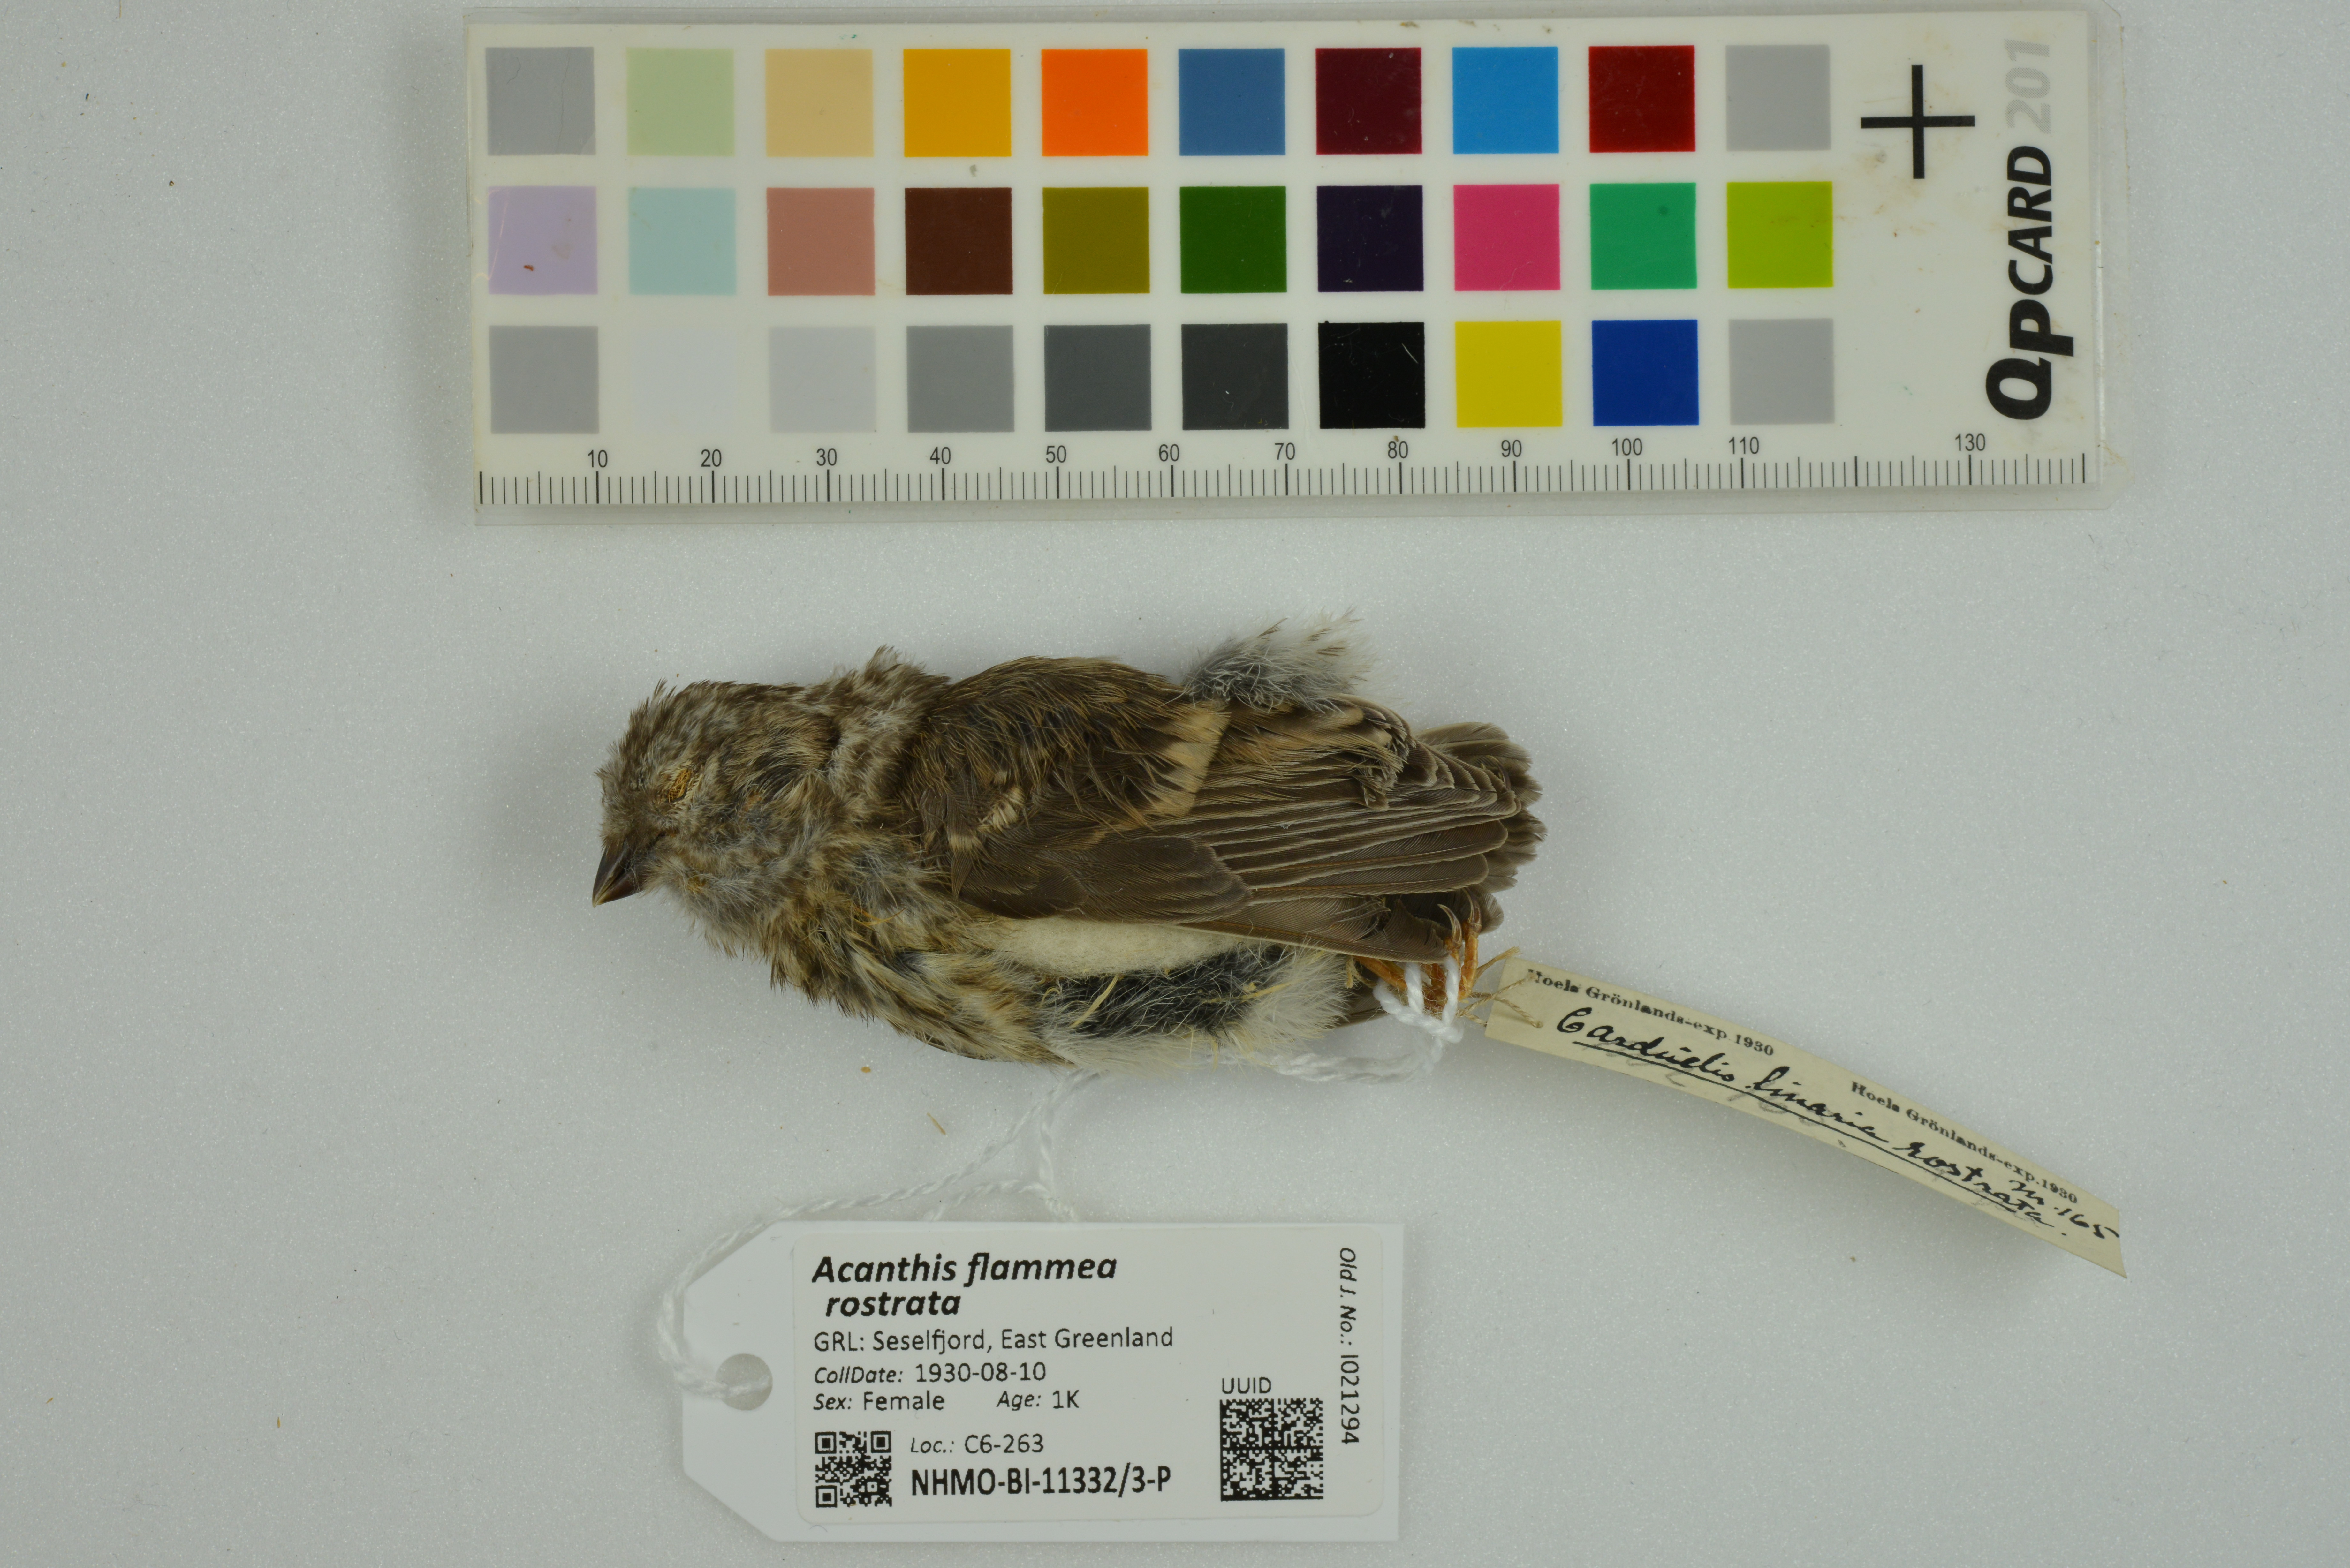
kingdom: Animalia
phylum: Chordata
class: Aves
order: Passeriformes
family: Fringillidae
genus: Acanthis
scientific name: Acanthis flammea
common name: Common redpoll
